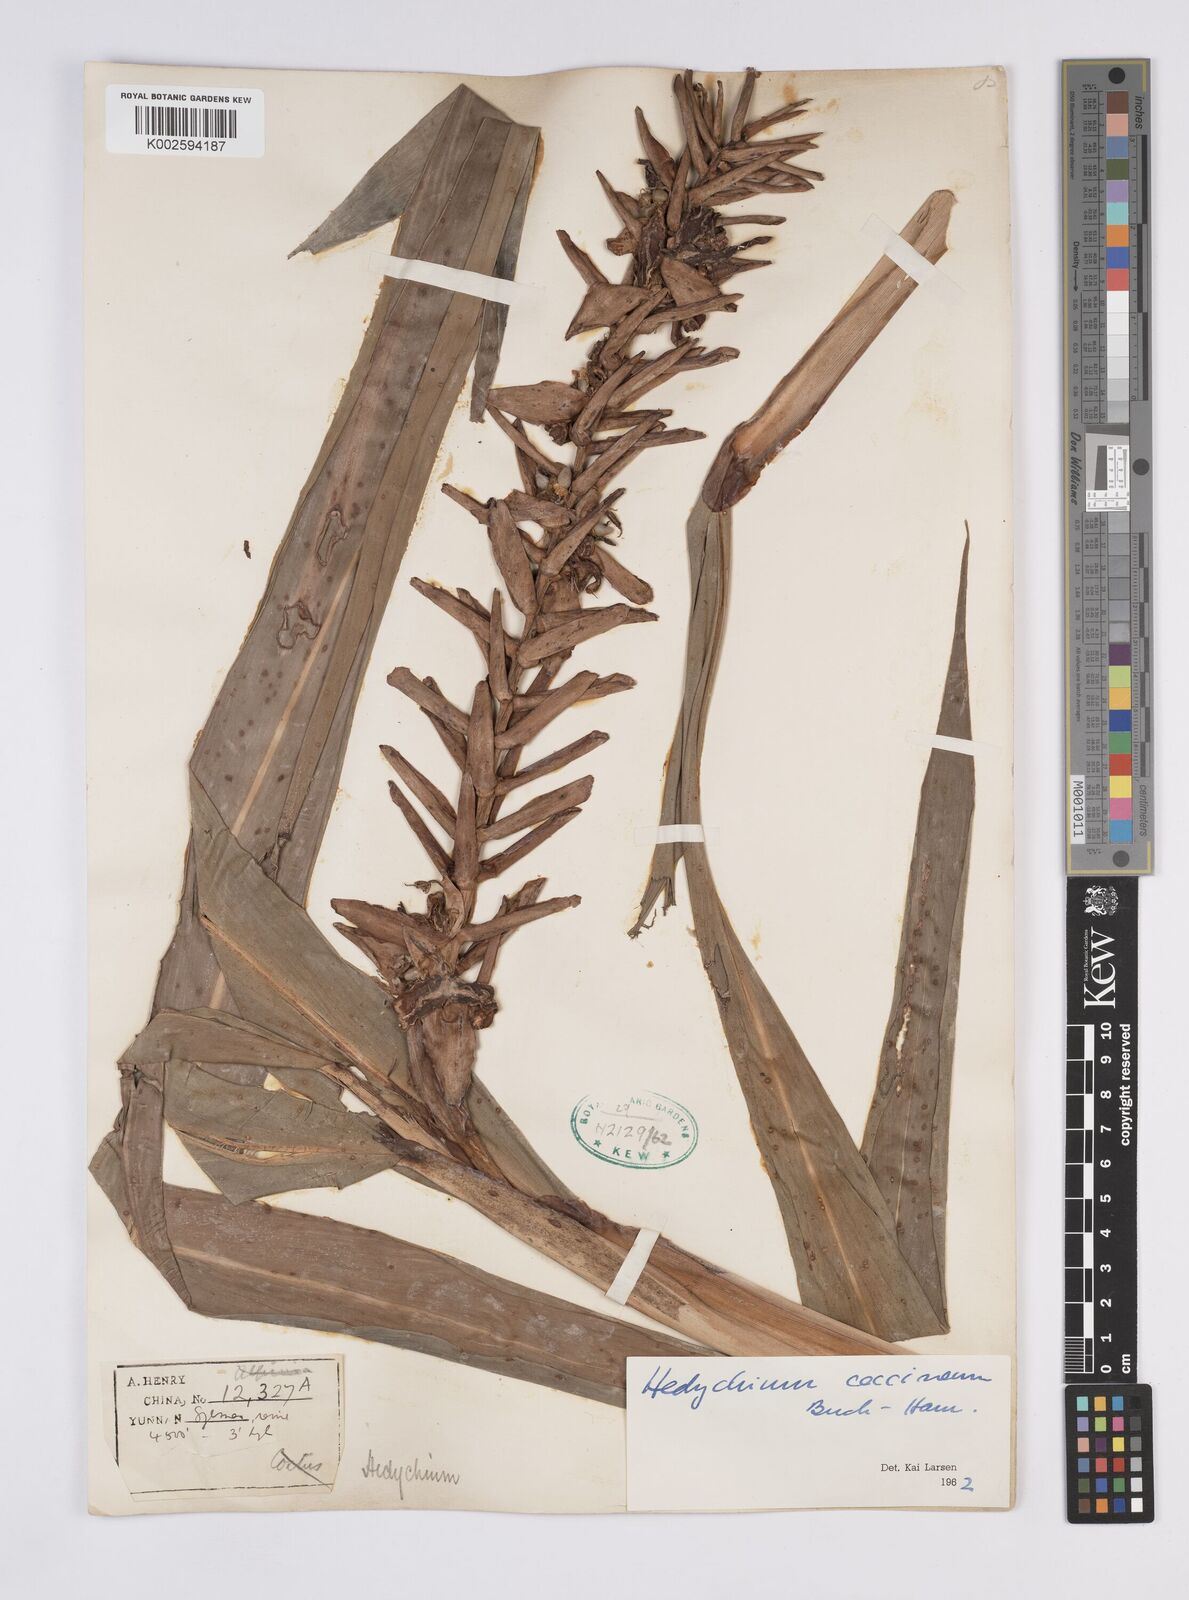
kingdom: Plantae
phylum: Tracheophyta
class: Liliopsida
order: Zingiberales
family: Zingiberaceae
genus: Hedychium
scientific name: Hedychium coccineum
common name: Red ginger-lily
